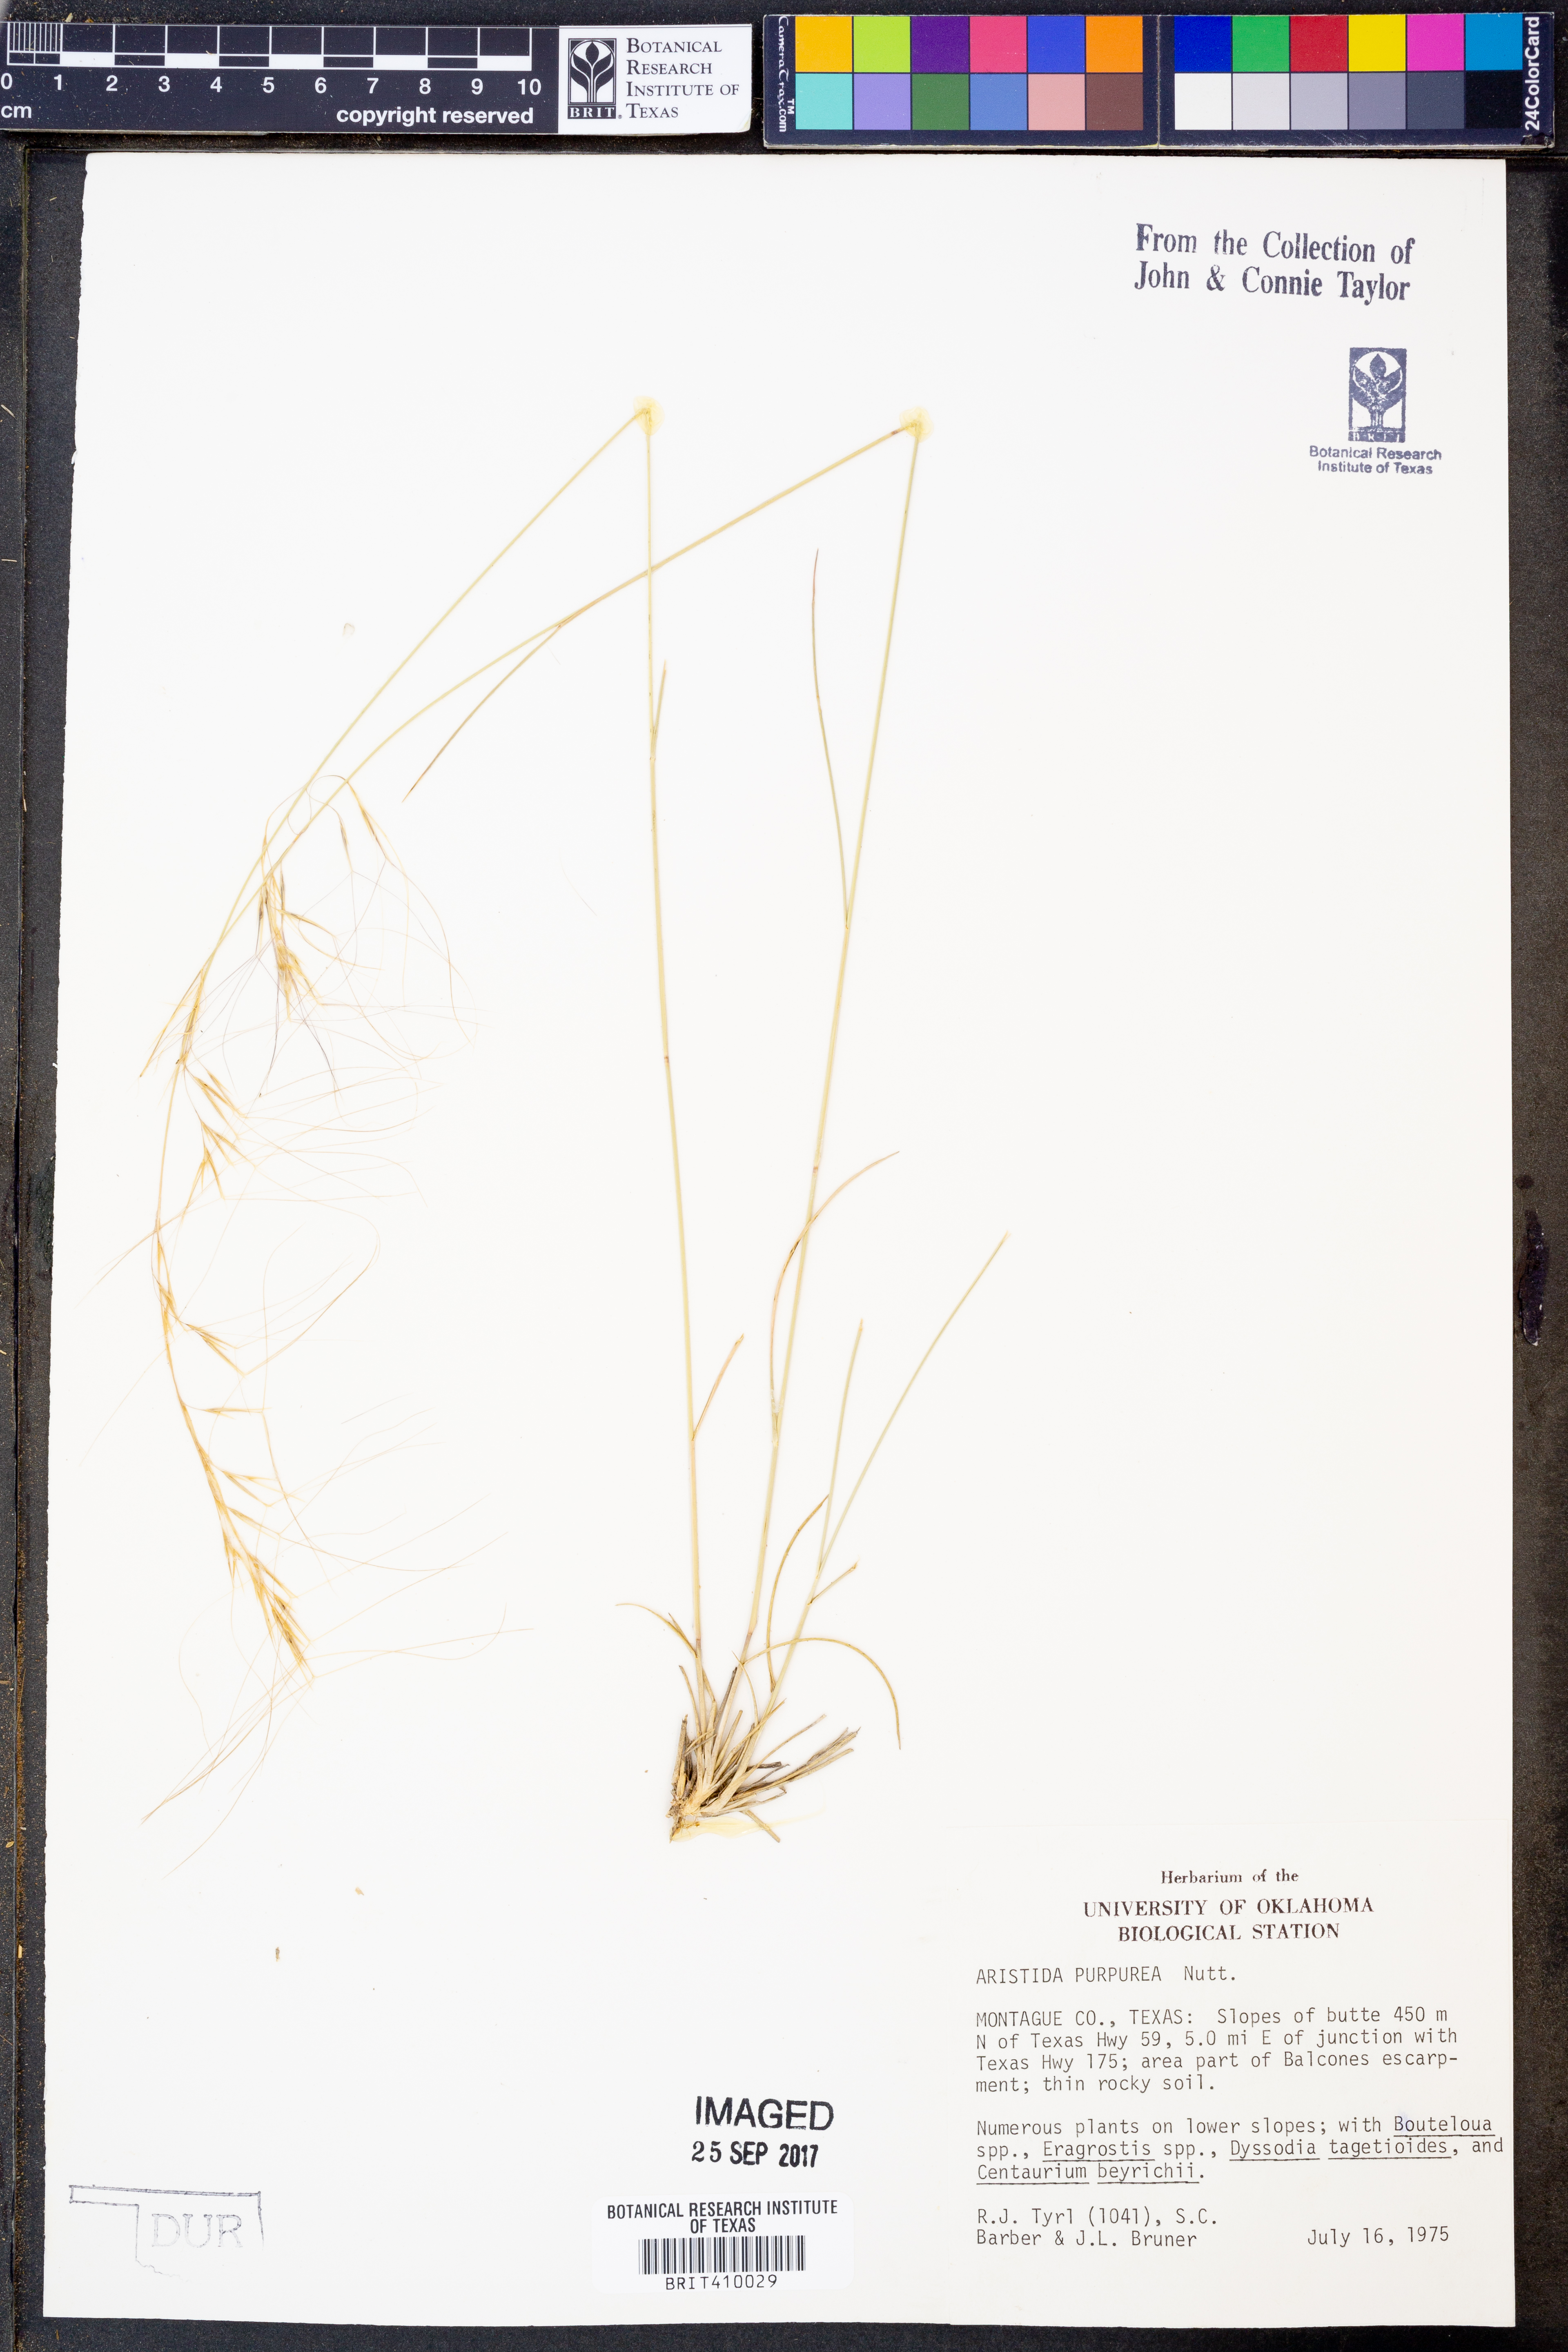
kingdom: Plantae
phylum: Tracheophyta
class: Liliopsida
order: Poales
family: Poaceae
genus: Aristida
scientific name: Aristida purpurea
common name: Purple threeawn
